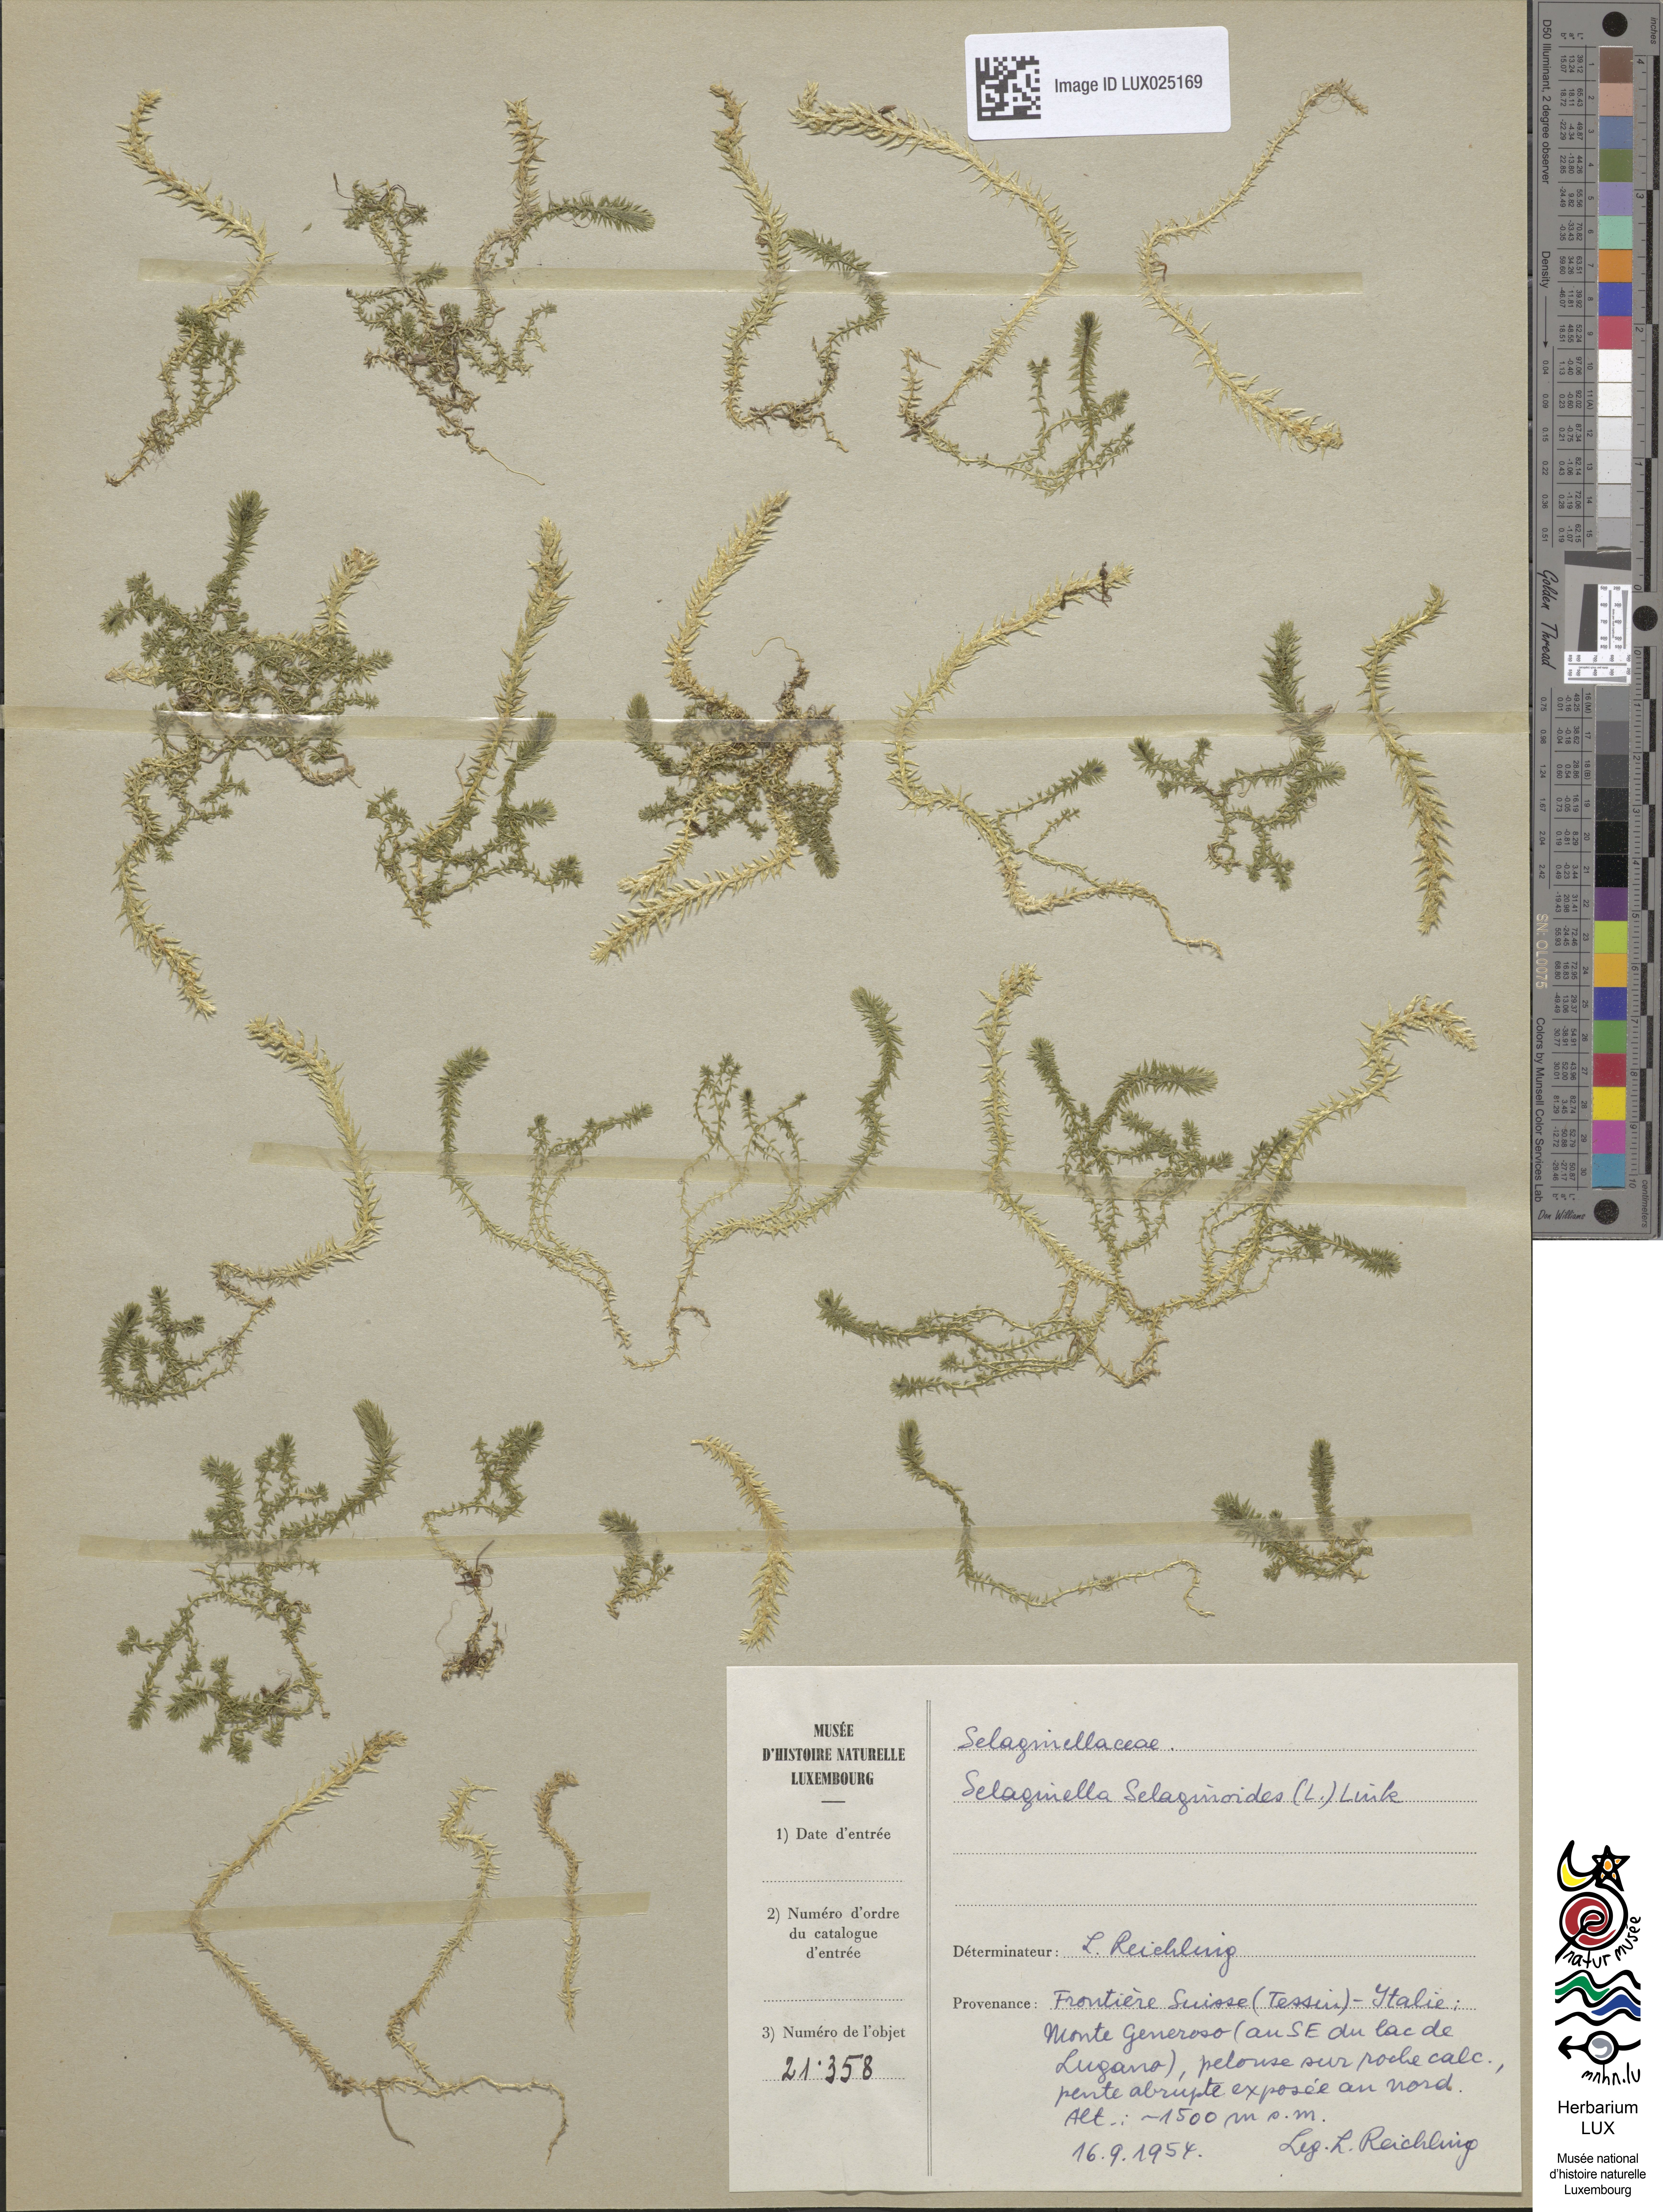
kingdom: Plantae
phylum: Tracheophyta
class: Lycopodiopsida
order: Selaginellales
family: Selaginellaceae
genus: Selaginella
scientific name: Selaginella selaginoides
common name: Prickly mountain-moss
